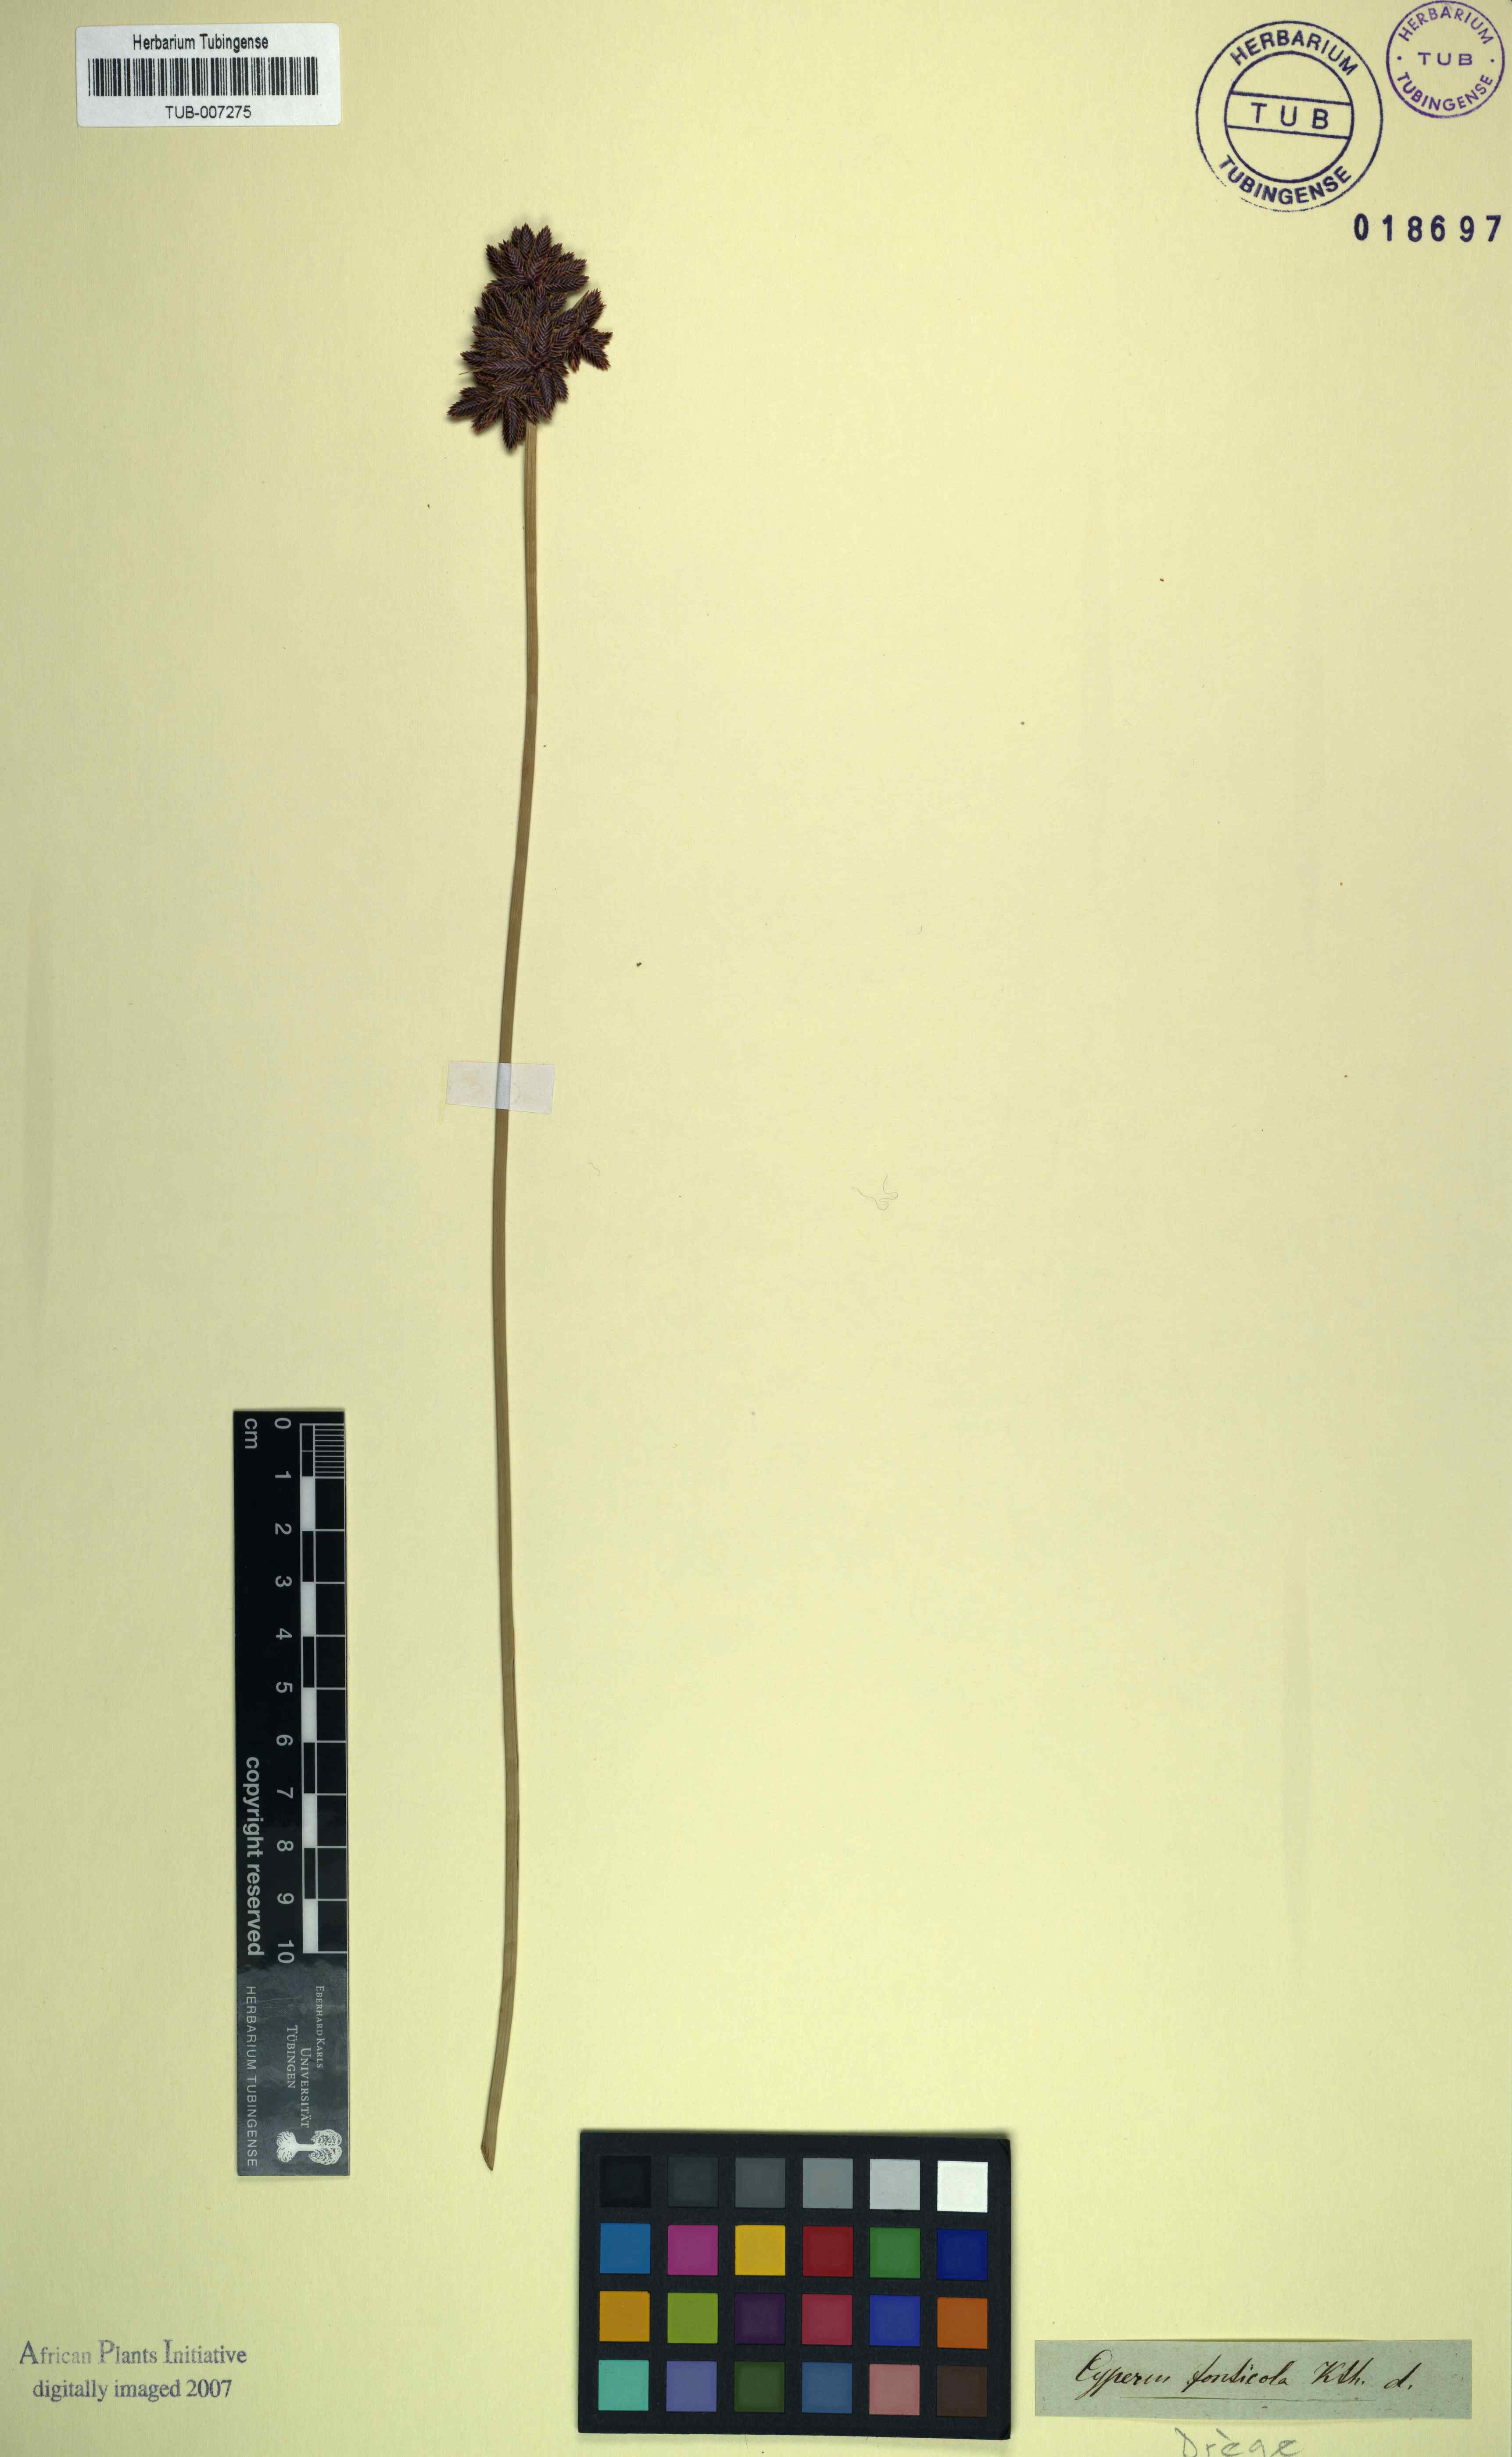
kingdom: Plantae
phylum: Tracheophyta
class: Liliopsida
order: Poales
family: Cyperaceae
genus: Cyperus
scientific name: Cyperus marginatus
